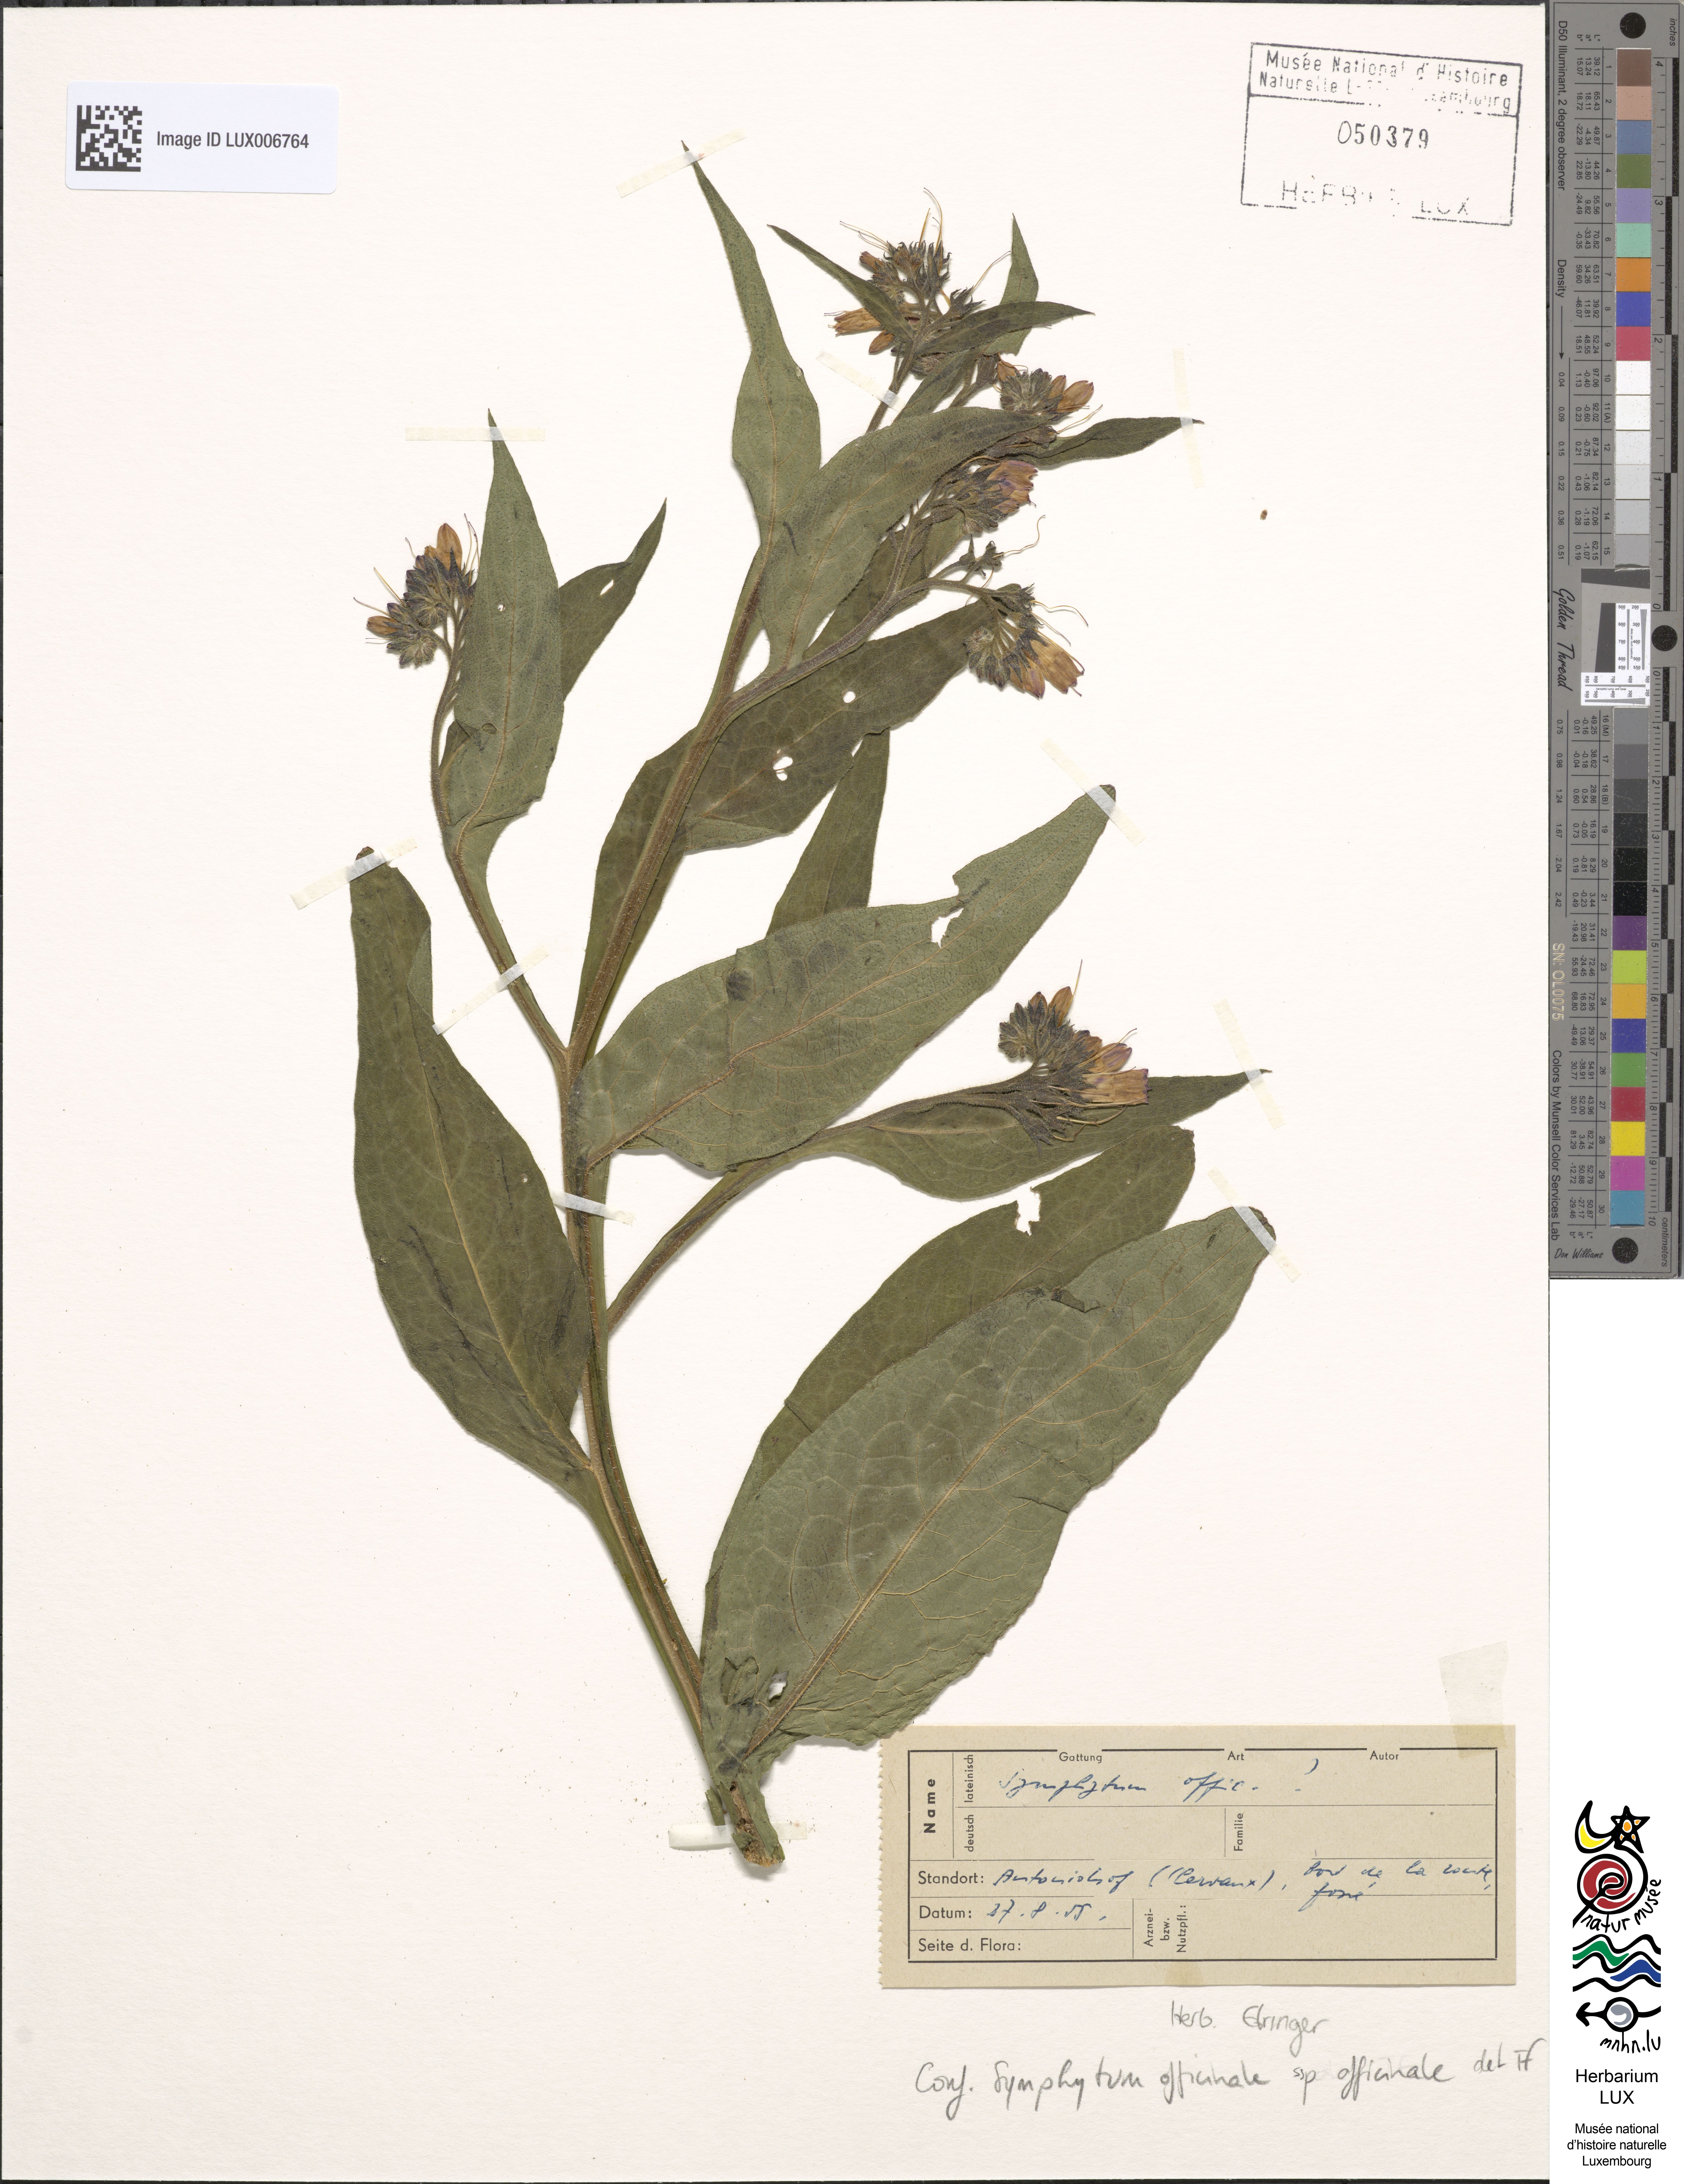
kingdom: Plantae
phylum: Tracheophyta
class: Magnoliopsida
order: Boraginales
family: Boraginaceae
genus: Symphytum
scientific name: Symphytum officinale
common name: Common comfrey
